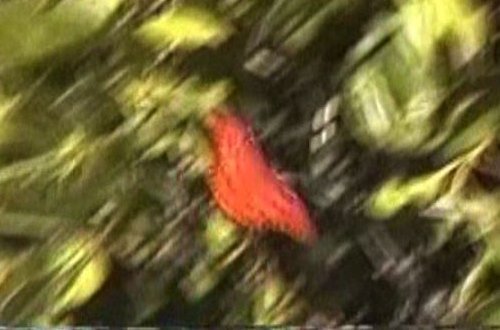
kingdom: Animalia
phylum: Arthropoda
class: Insecta
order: Lepidoptera
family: Nymphalidae
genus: Dione
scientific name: Dione vanillae
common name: Gulf Fritillary
